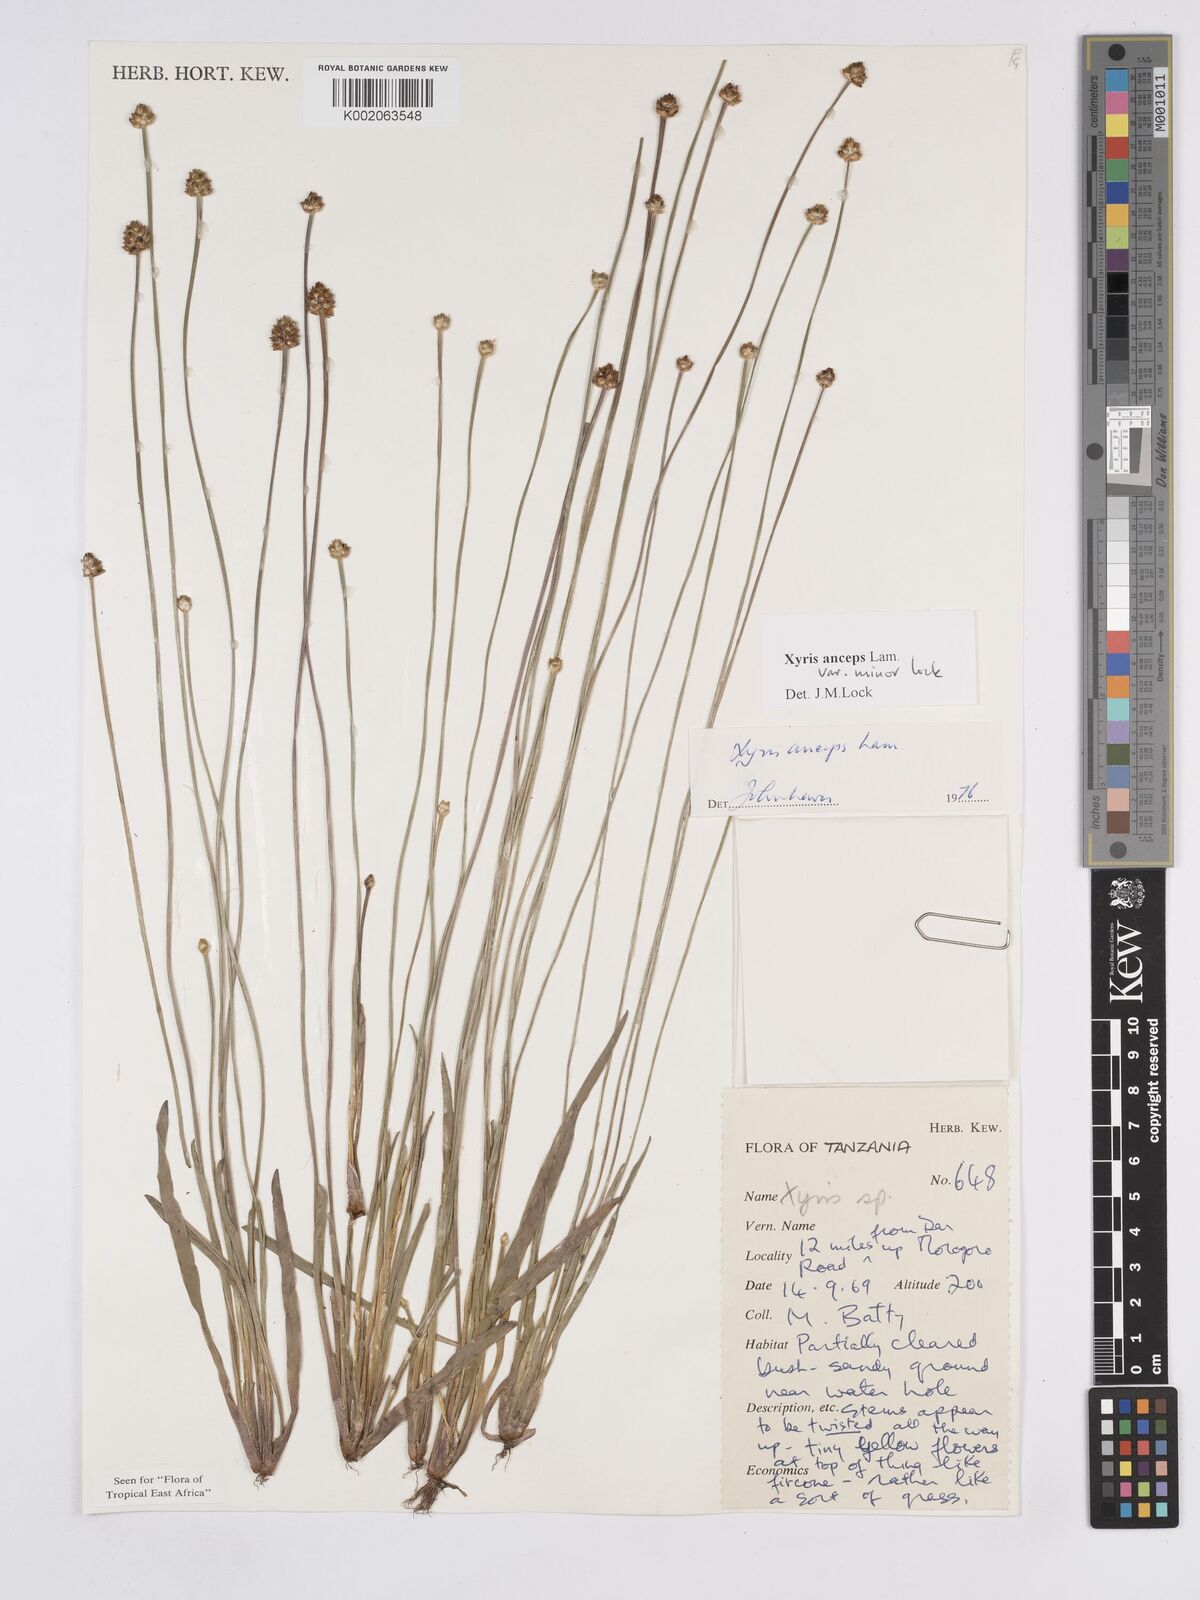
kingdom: Plantae
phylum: Tracheophyta
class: Liliopsida
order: Poales
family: Xyridaceae
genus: Xyris
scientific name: Xyris anceps
